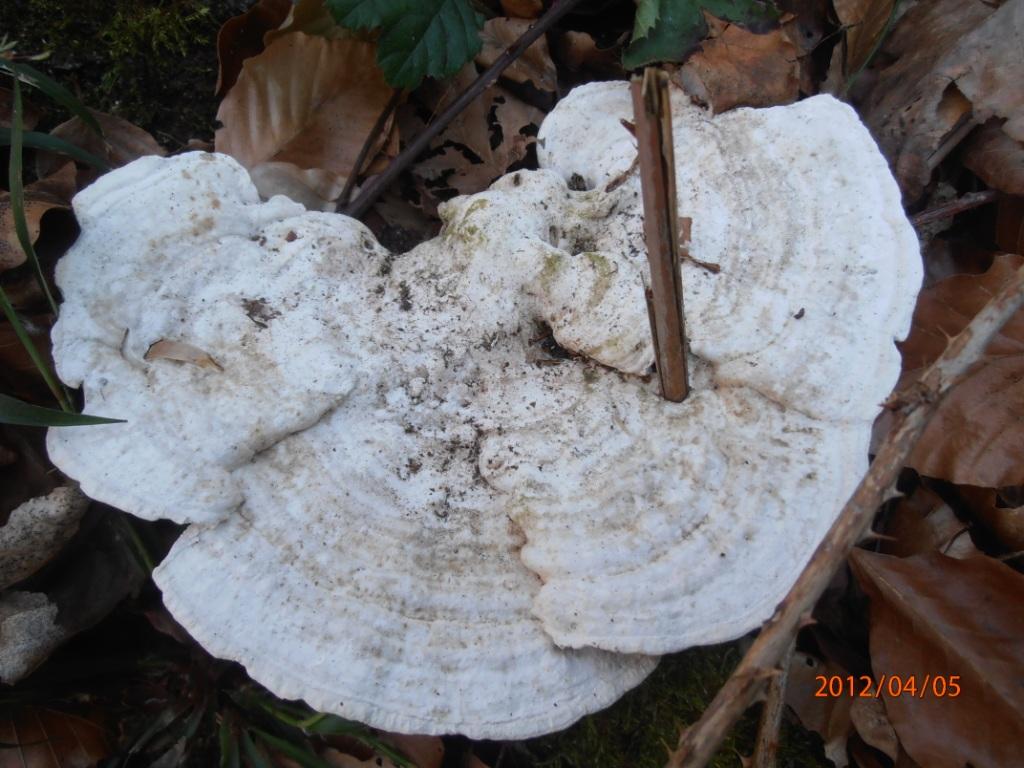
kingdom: Fungi
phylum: Basidiomycota
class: Agaricomycetes
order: Polyporales
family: Polyporaceae
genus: Trametes
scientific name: Trametes hirsuta
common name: håret læderporesvamp
